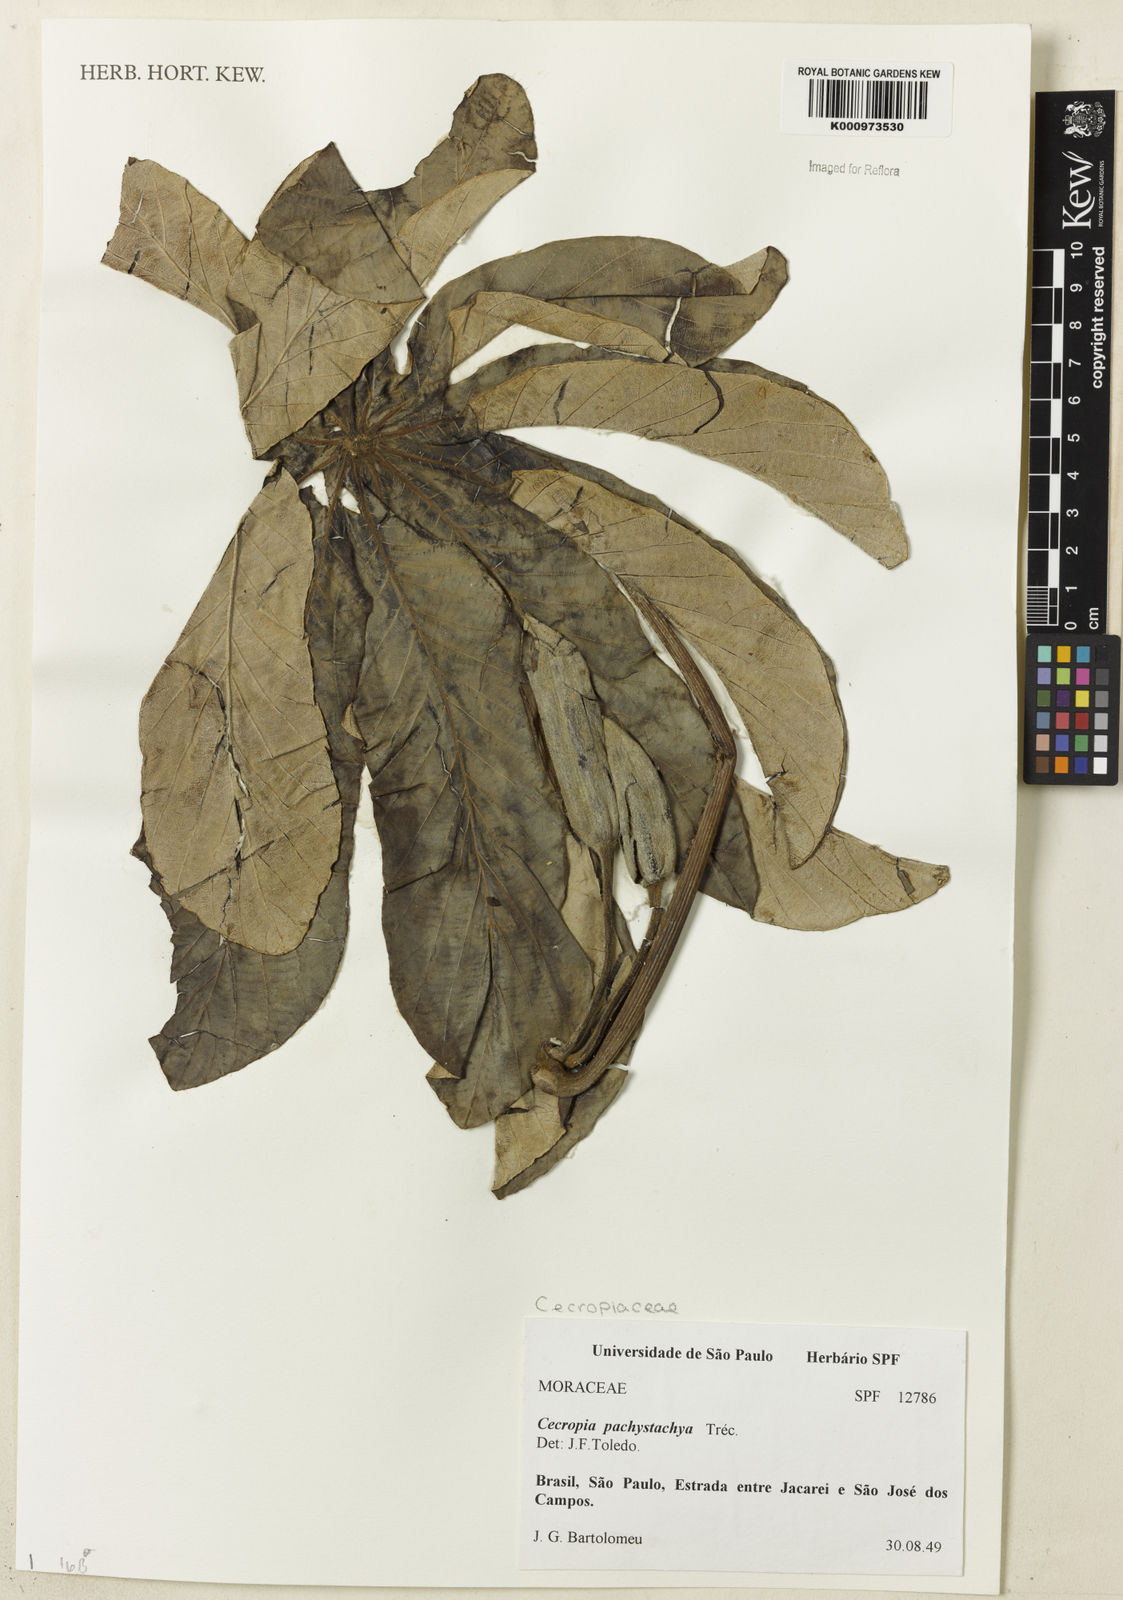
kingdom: Plantae
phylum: Tracheophyta
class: Magnoliopsida
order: Rosales
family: Urticaceae
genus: Cecropia
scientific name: Cecropia
